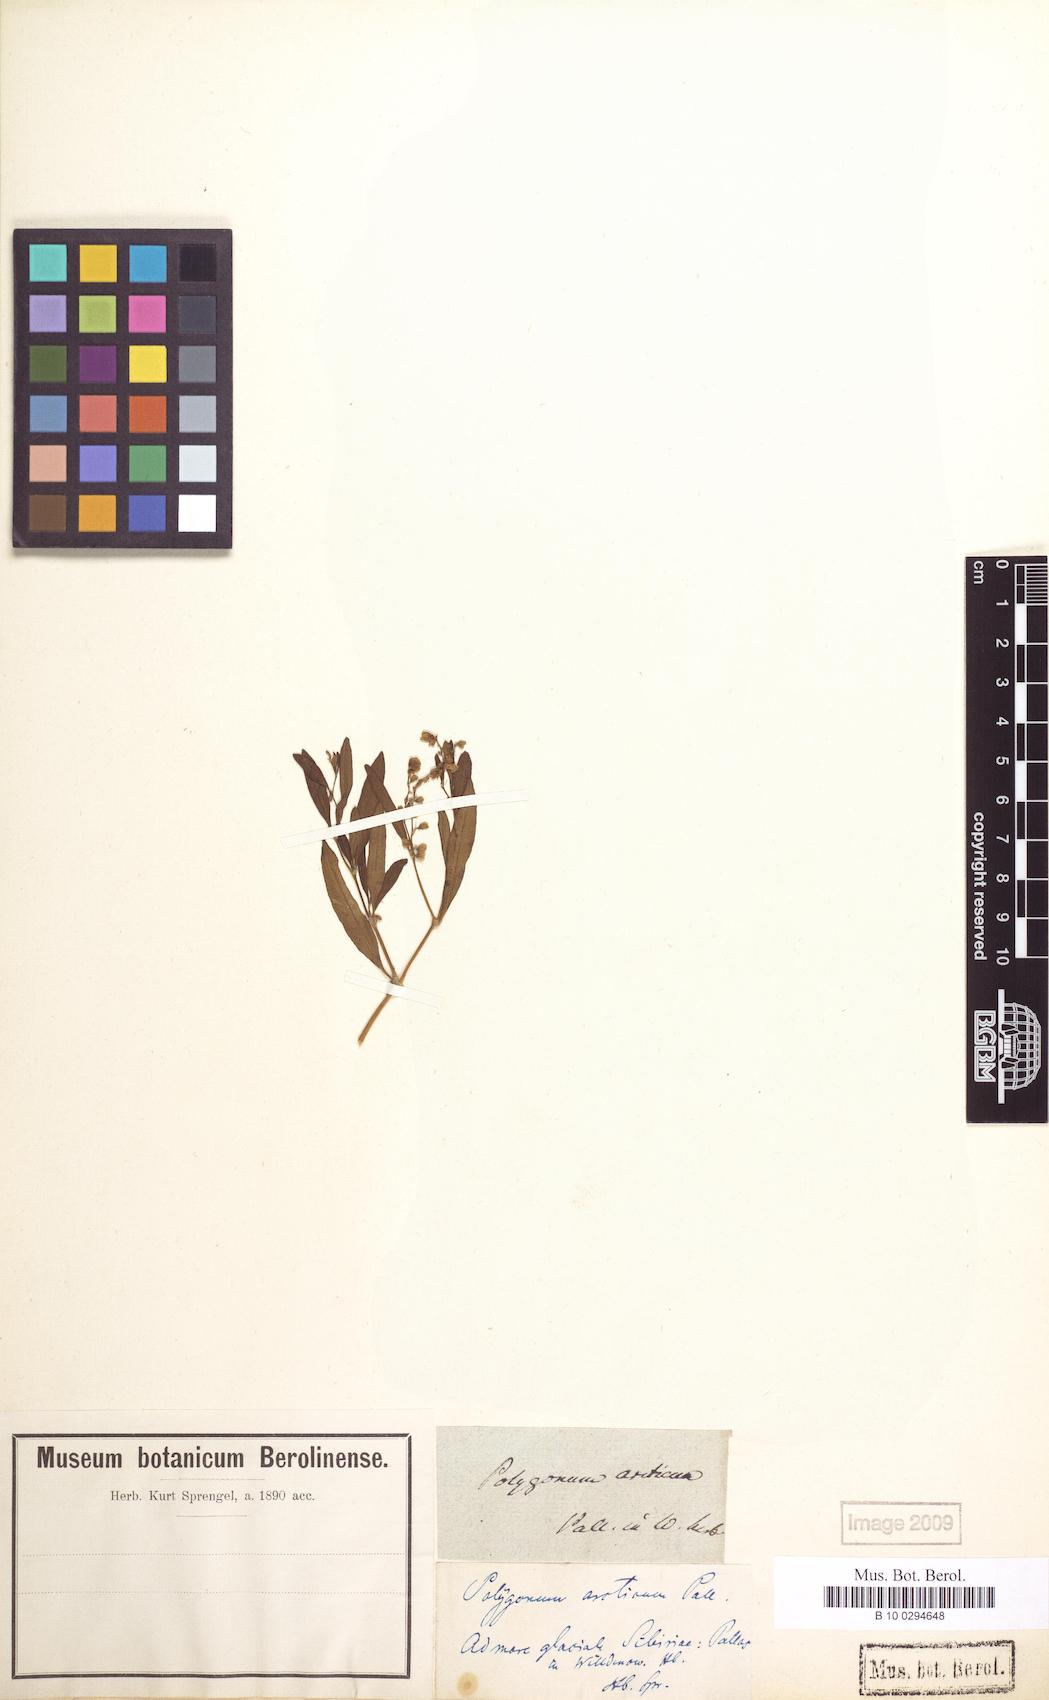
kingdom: Plantae
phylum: Tracheophyta
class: Magnoliopsida
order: Caryophyllales
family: Polygonaceae
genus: Knorringia
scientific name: Knorringia sibirica
